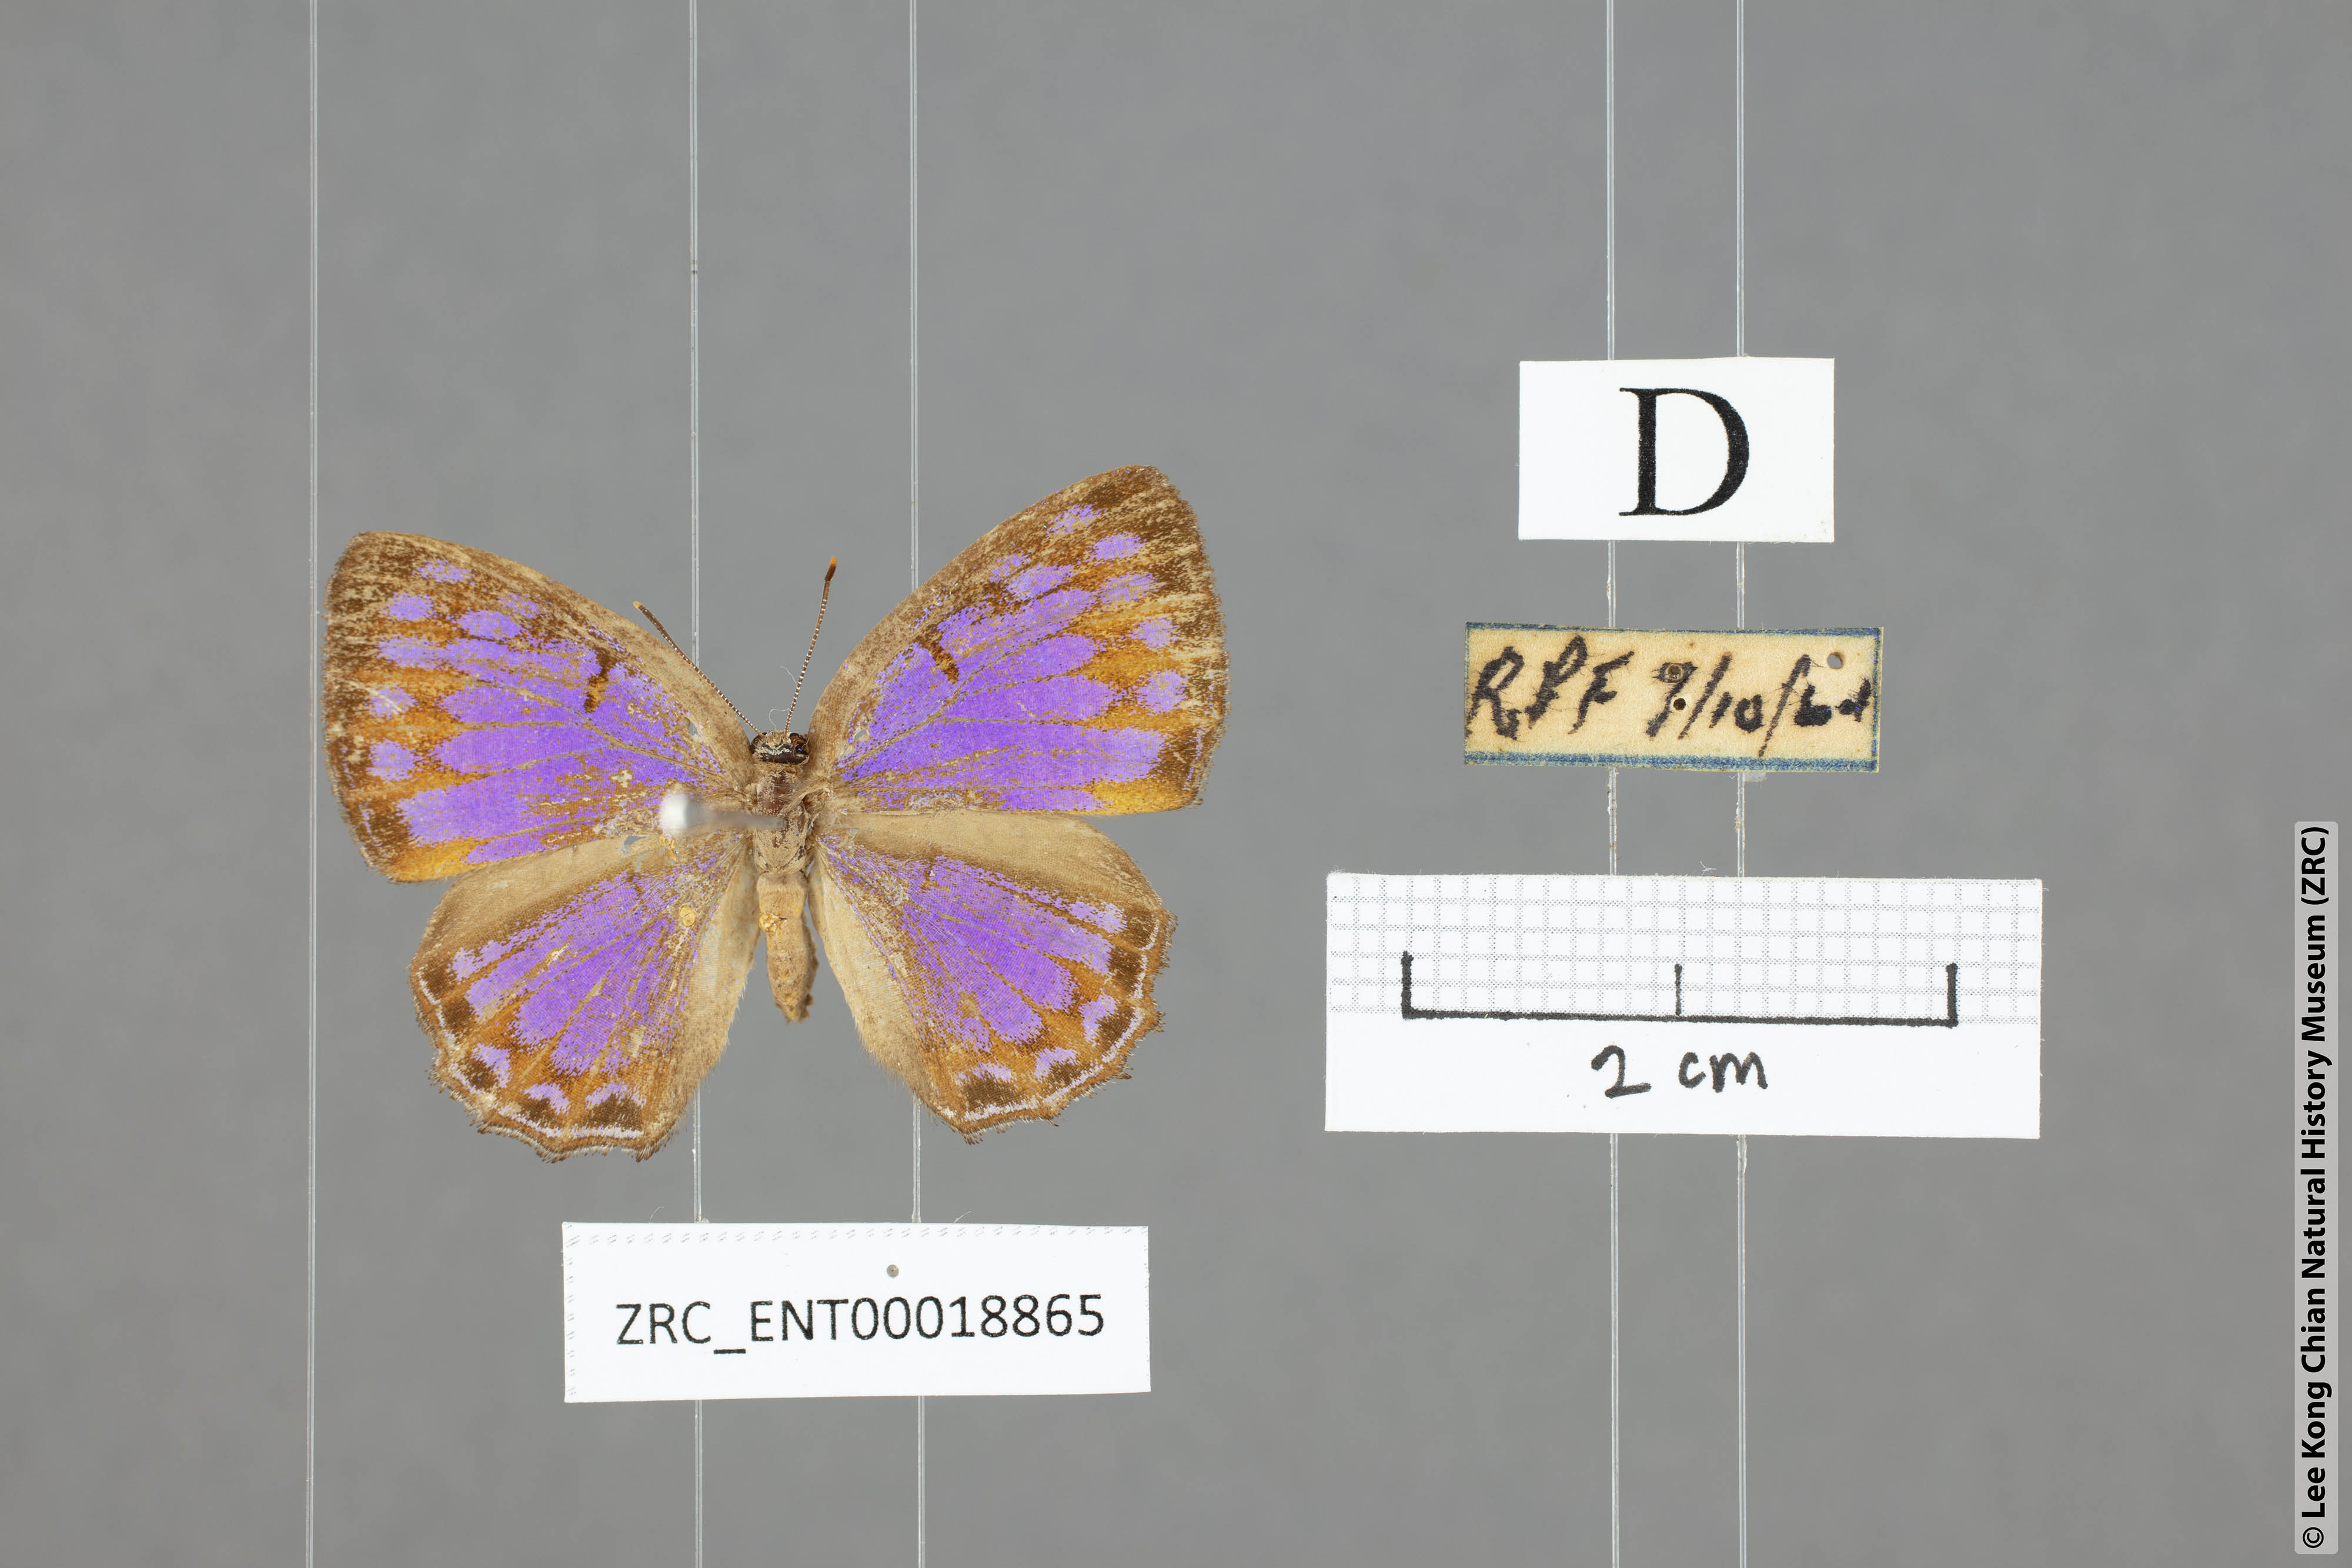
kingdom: Animalia
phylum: Arthropoda
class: Insecta
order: Lepidoptera
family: Lycaenidae
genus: Poritia
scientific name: Poritia sumatrae
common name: Sumatran gem
